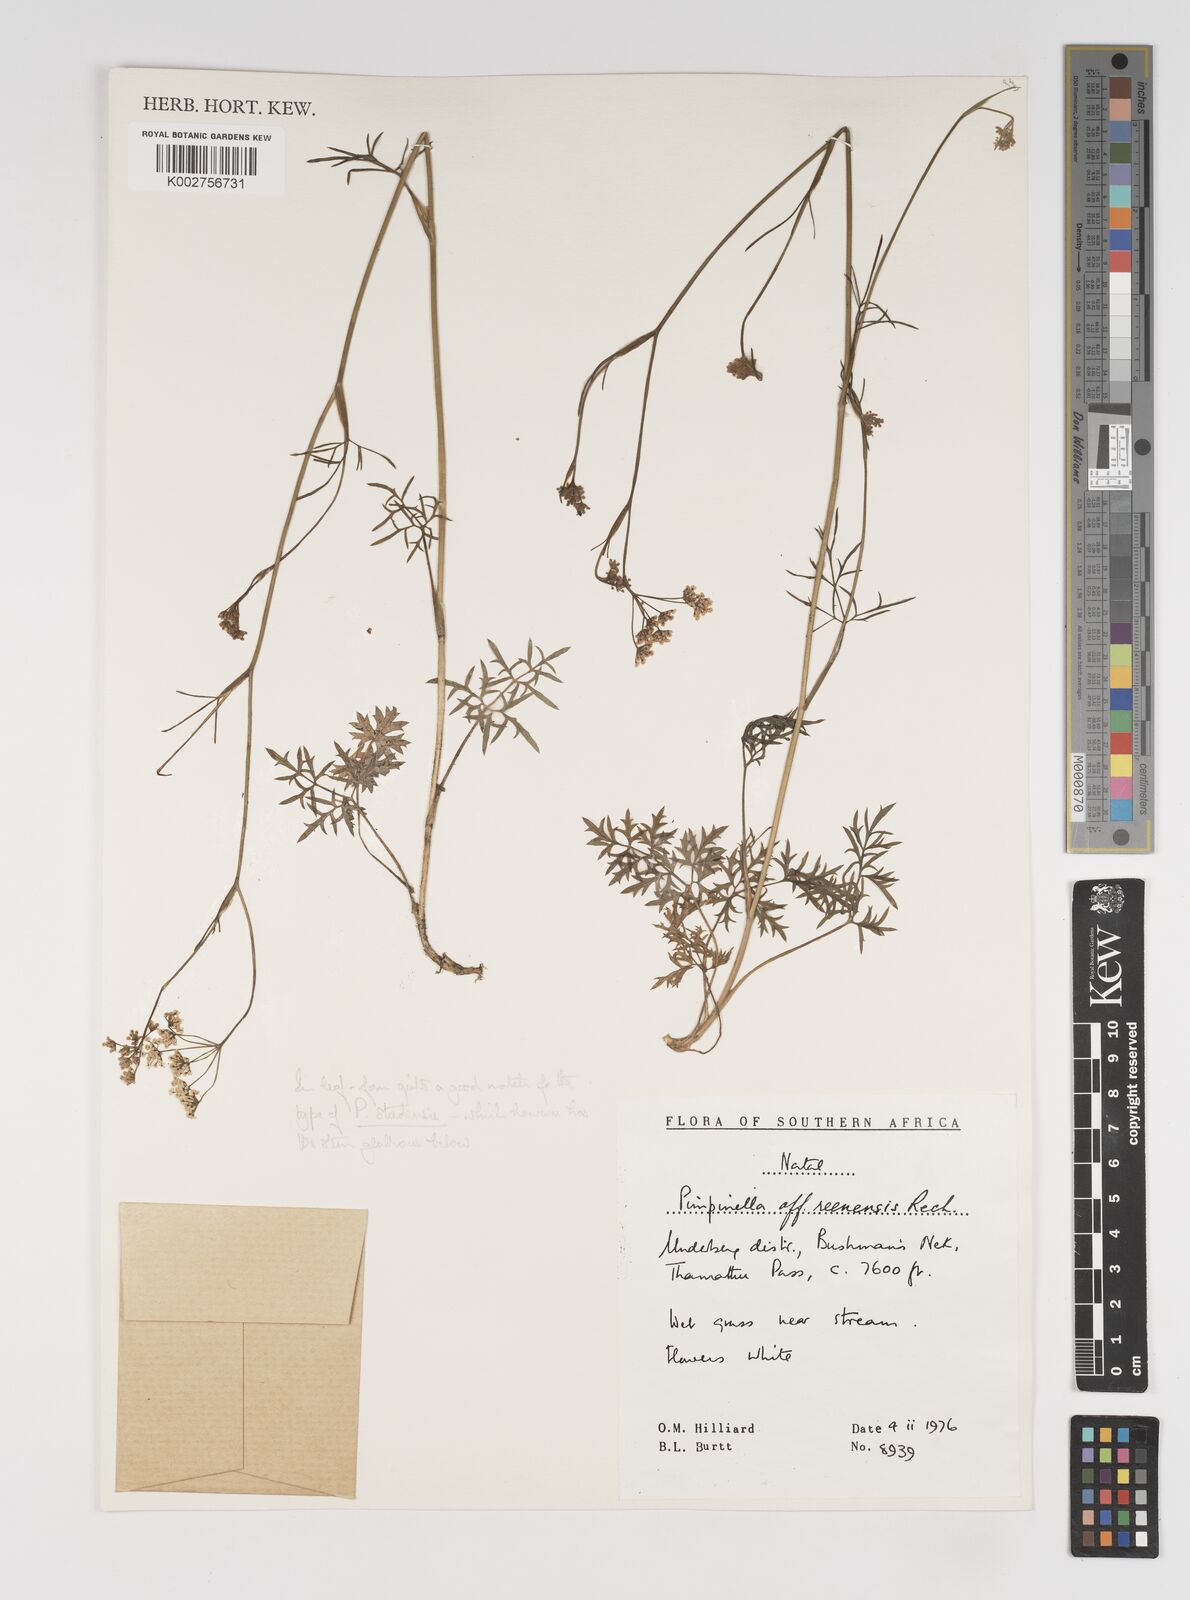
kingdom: Plantae
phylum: Tracheophyta
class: Magnoliopsida
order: Apiales
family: Apiaceae
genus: Pimpinella
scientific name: Pimpinella caffra
